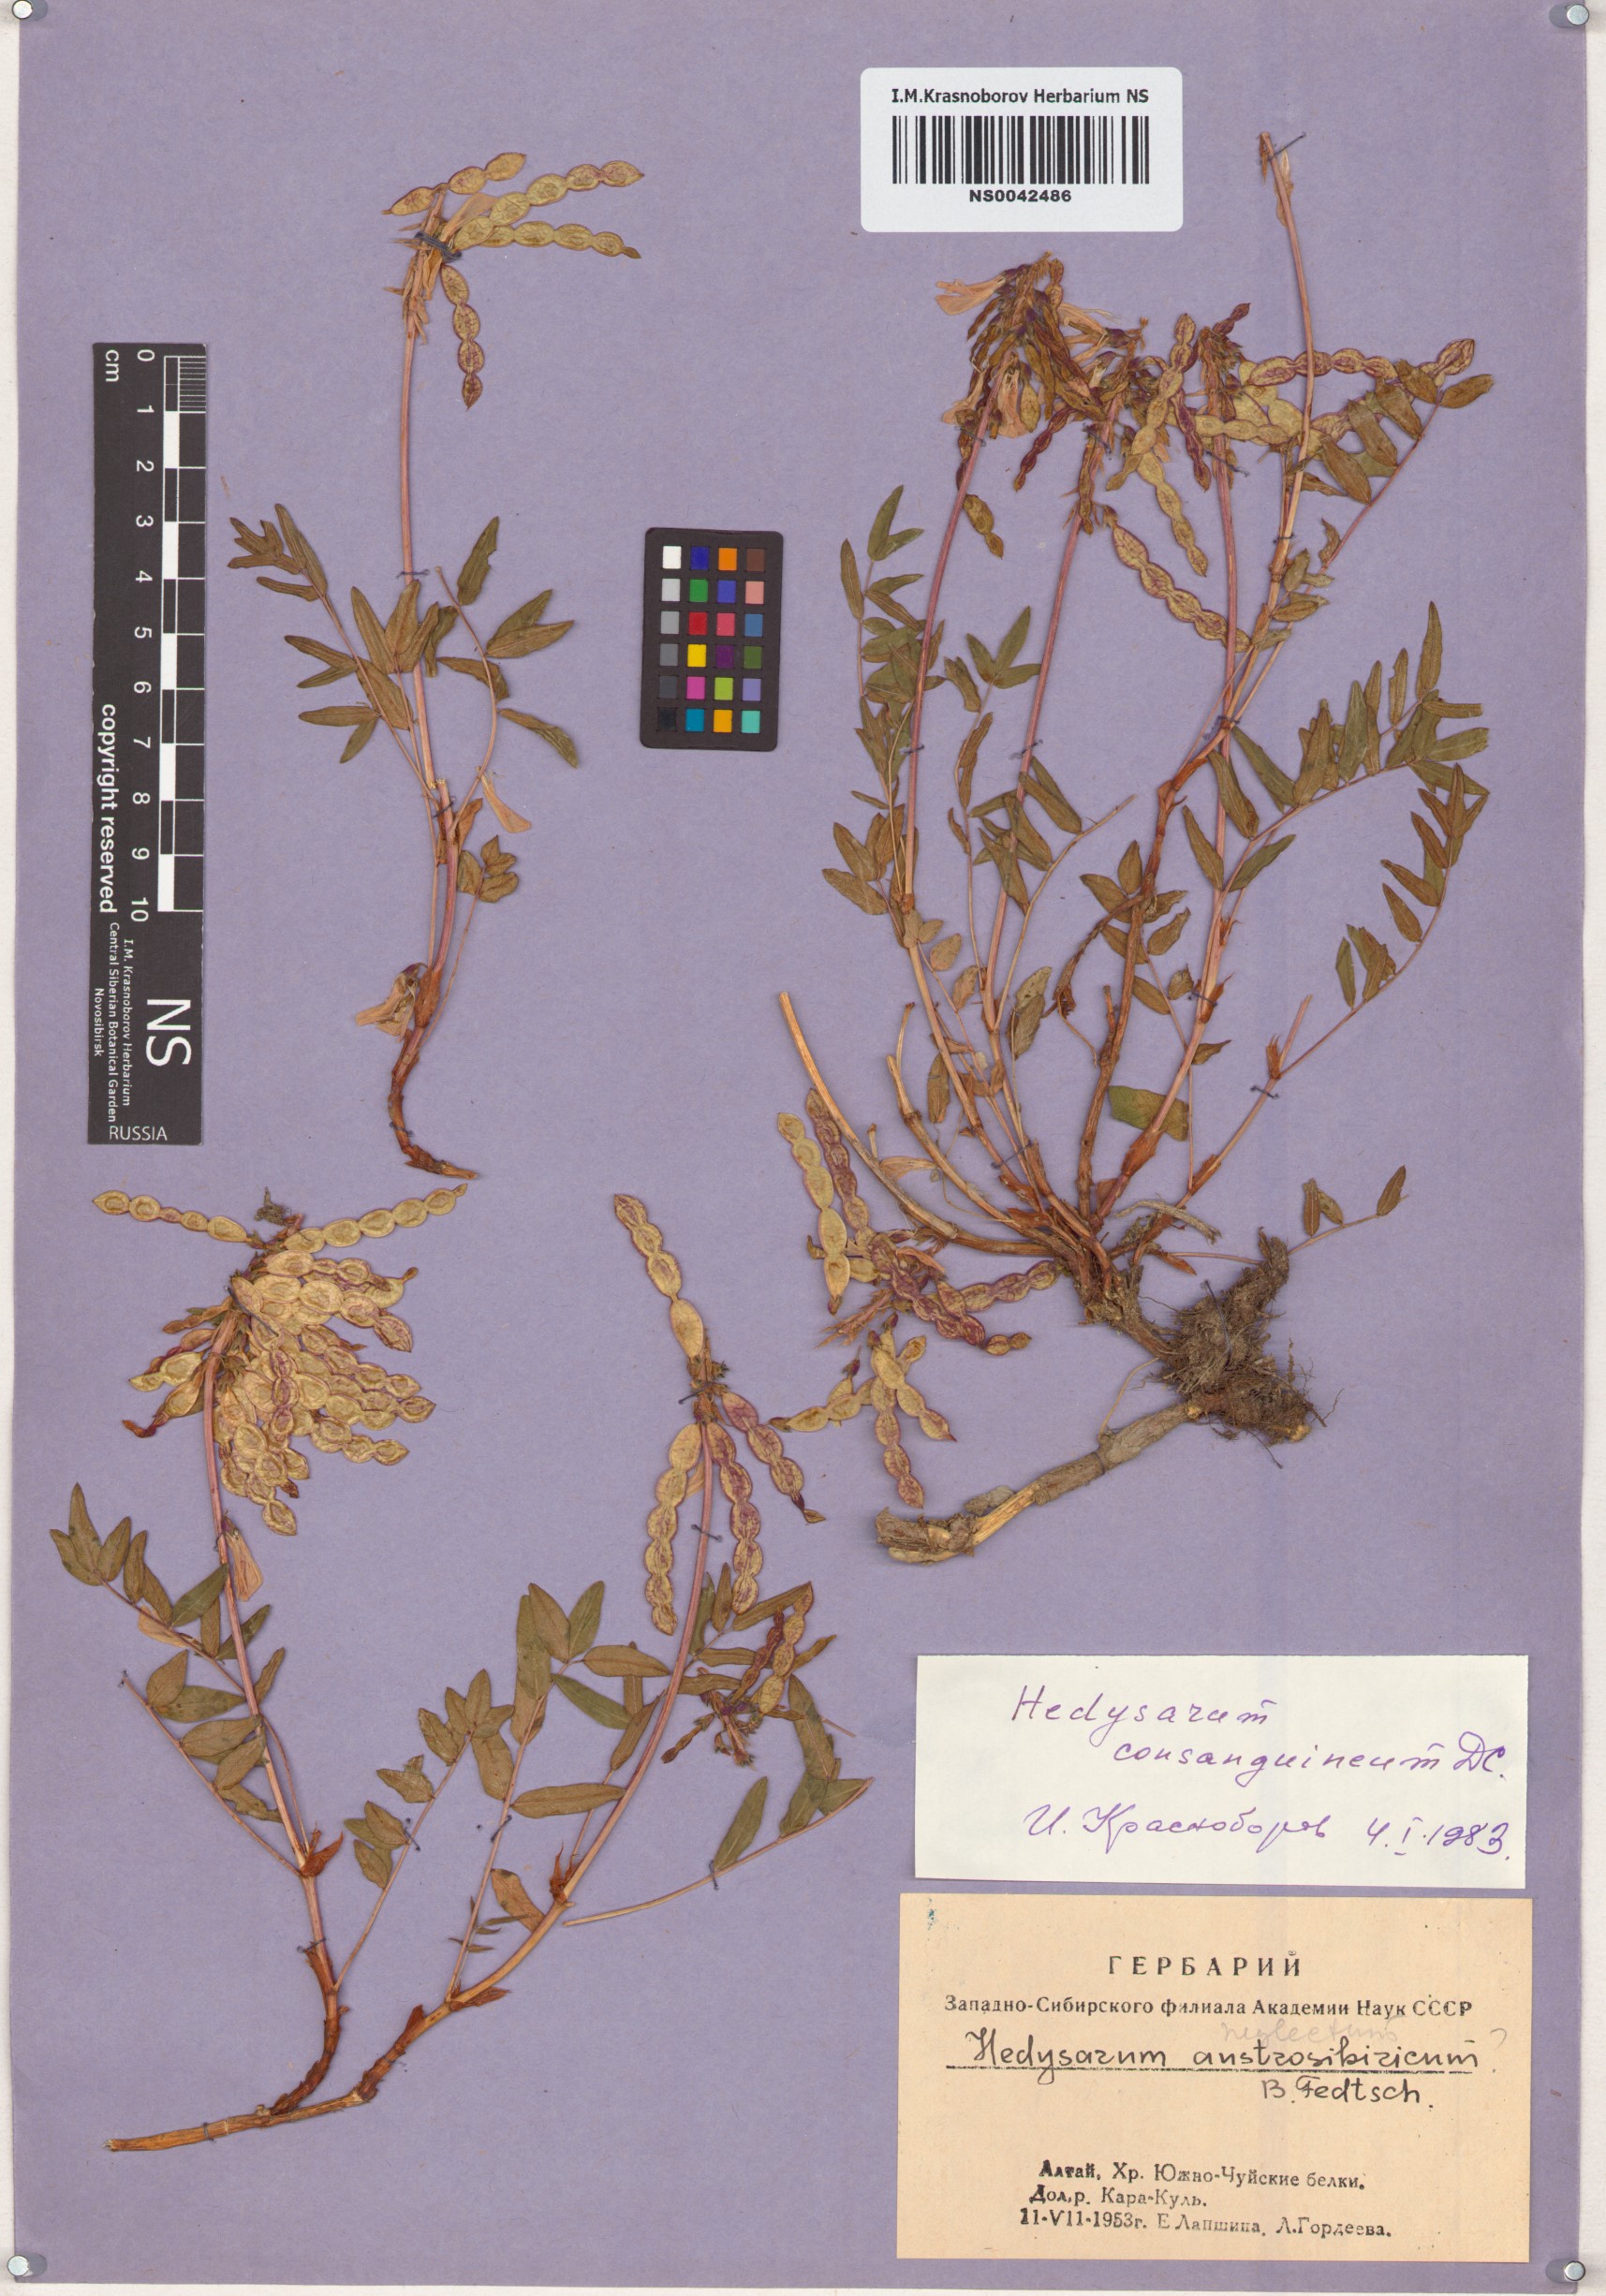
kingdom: Plantae
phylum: Tracheophyta
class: Magnoliopsida
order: Fabales
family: Fabaceae
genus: Hedysarum
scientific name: Hedysarum consanguineum
